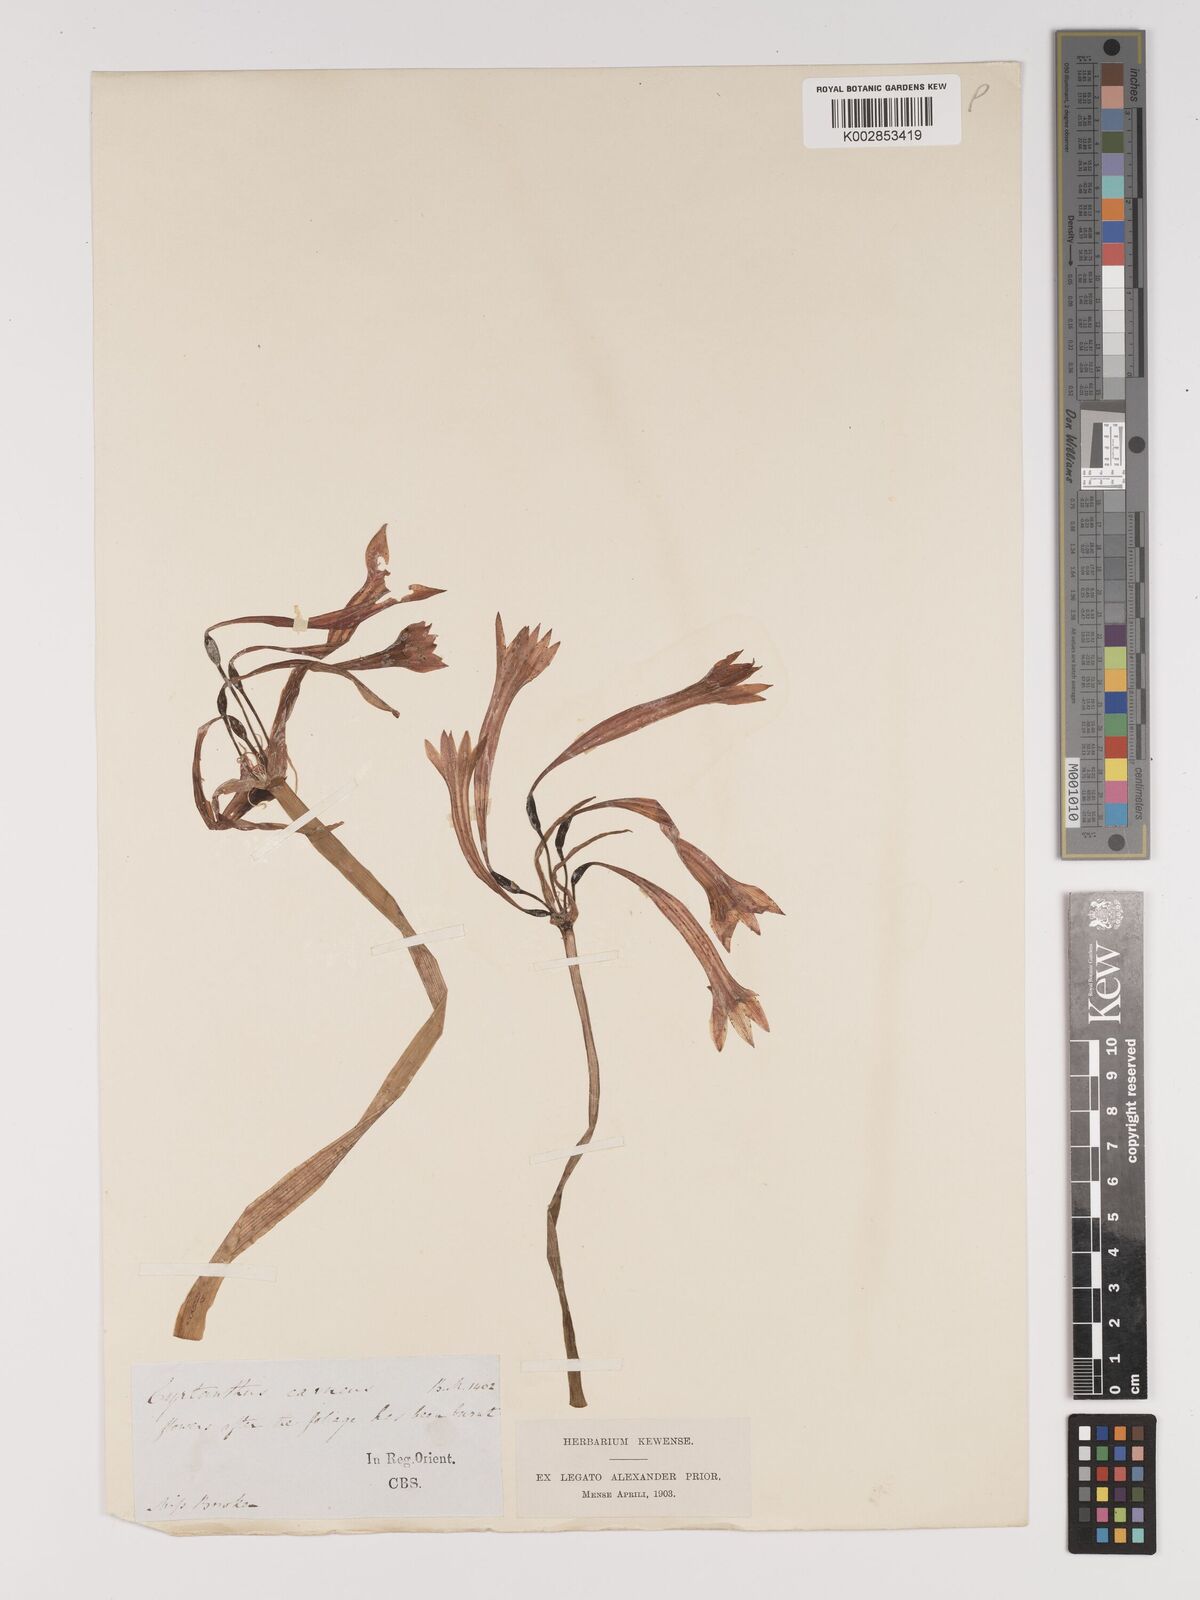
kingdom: Plantae
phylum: Tracheophyta
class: Liliopsida
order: Asparagales
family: Amaryllidaceae
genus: Cyrtanthus
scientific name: Cyrtanthus contractus
